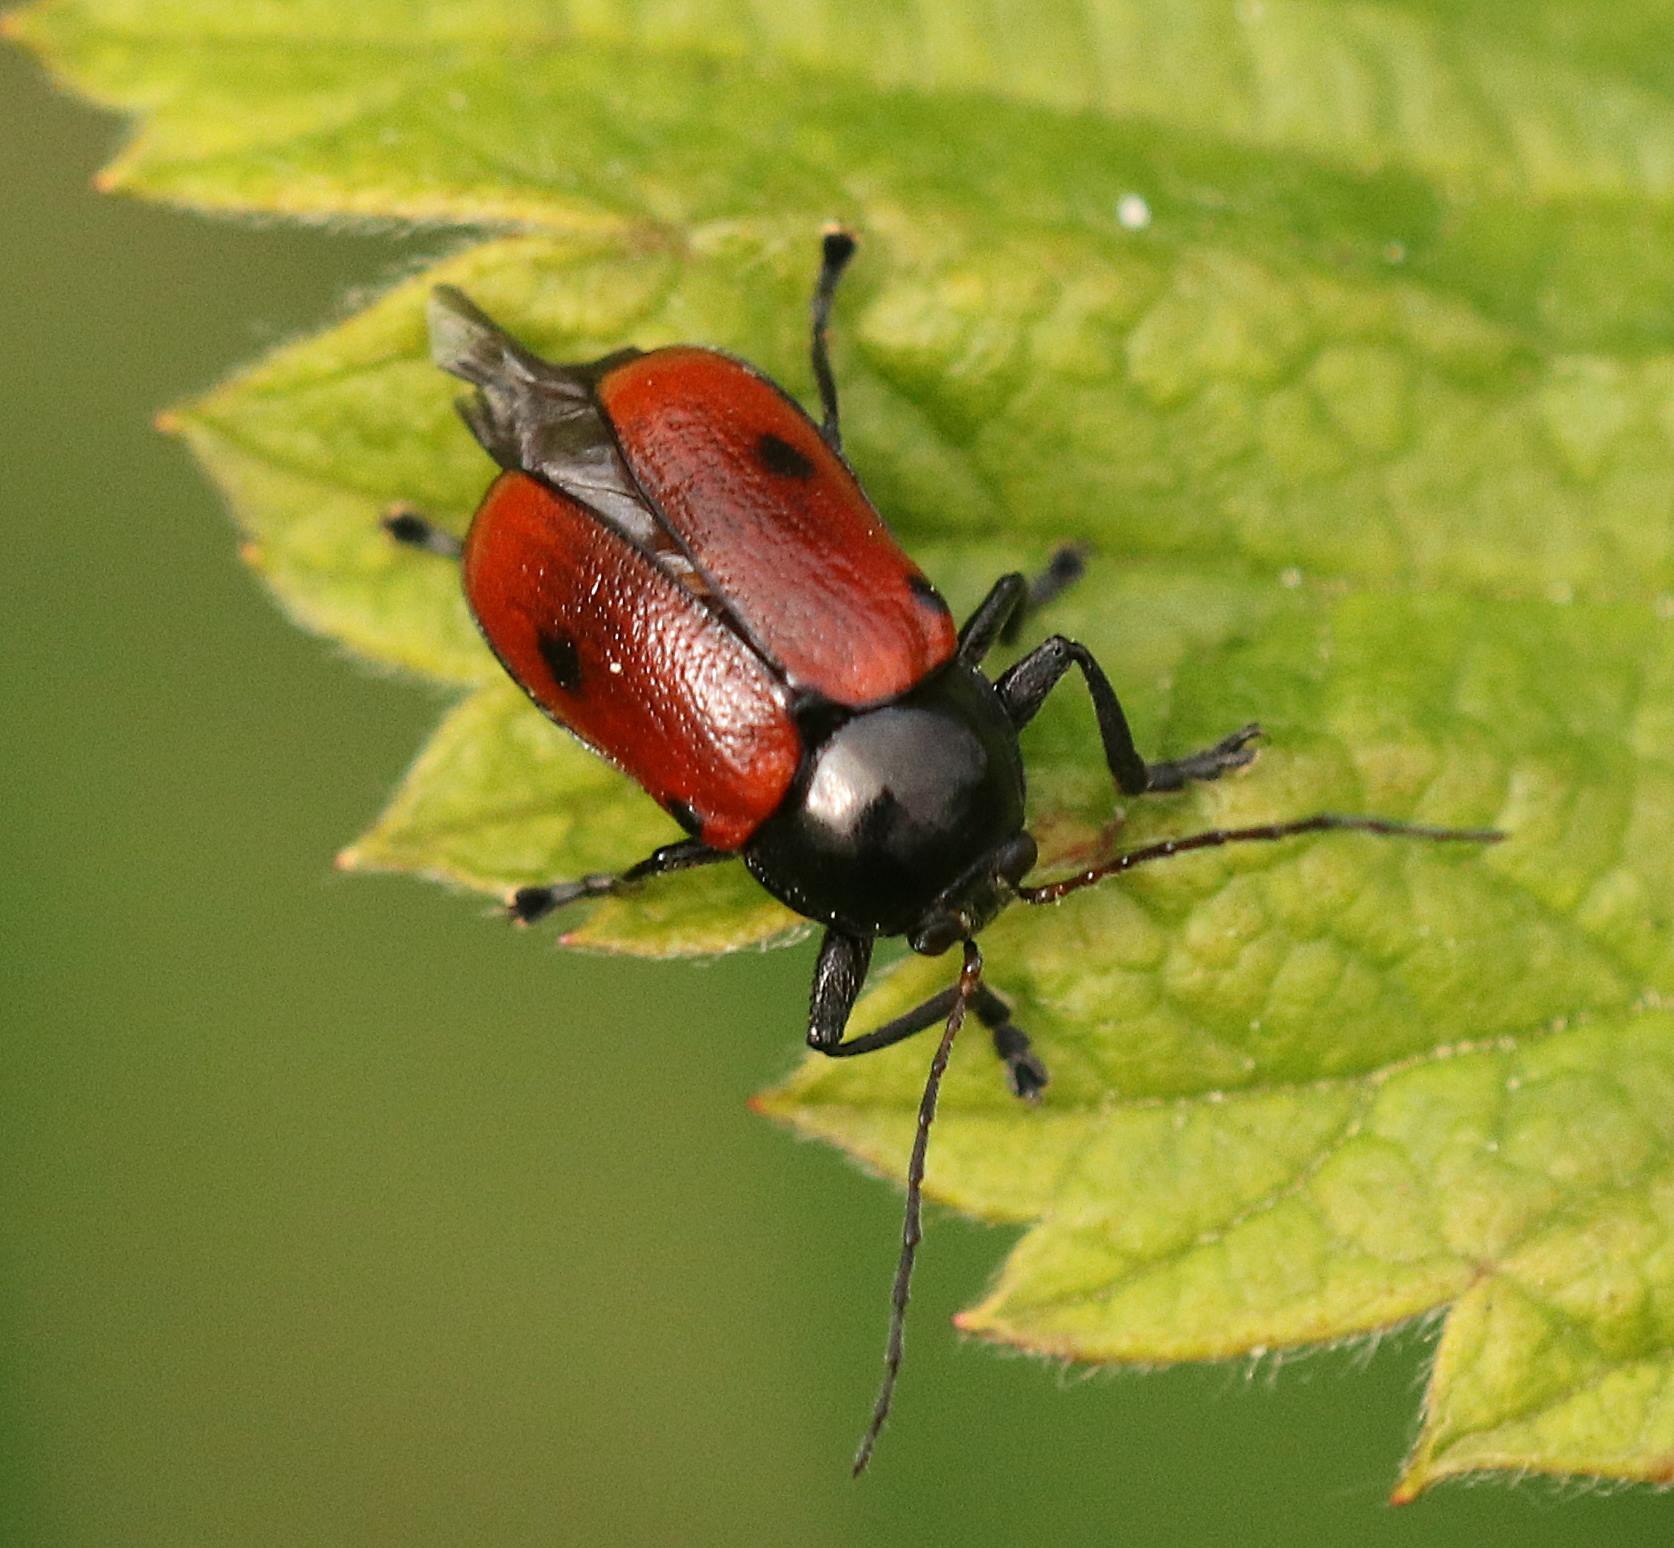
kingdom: Animalia
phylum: Arthropoda
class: Insecta
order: Coleoptera
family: Chrysomelidae
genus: Cryptocephalus
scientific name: Cryptocephalus coryli
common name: Hasselfaldbille
